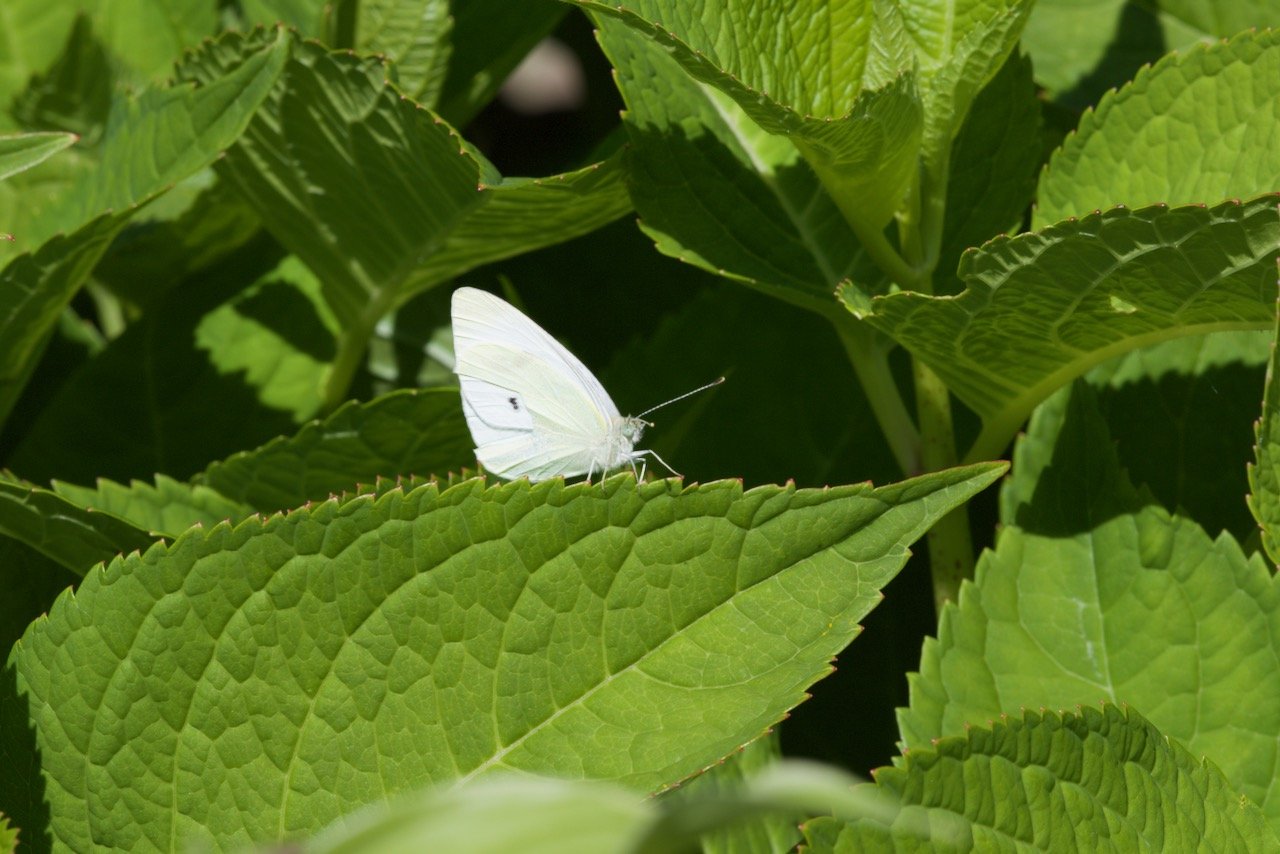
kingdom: Animalia
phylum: Arthropoda
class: Insecta
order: Lepidoptera
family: Pieridae
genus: Pieris
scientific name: Pieris rapae
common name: Cabbage White
